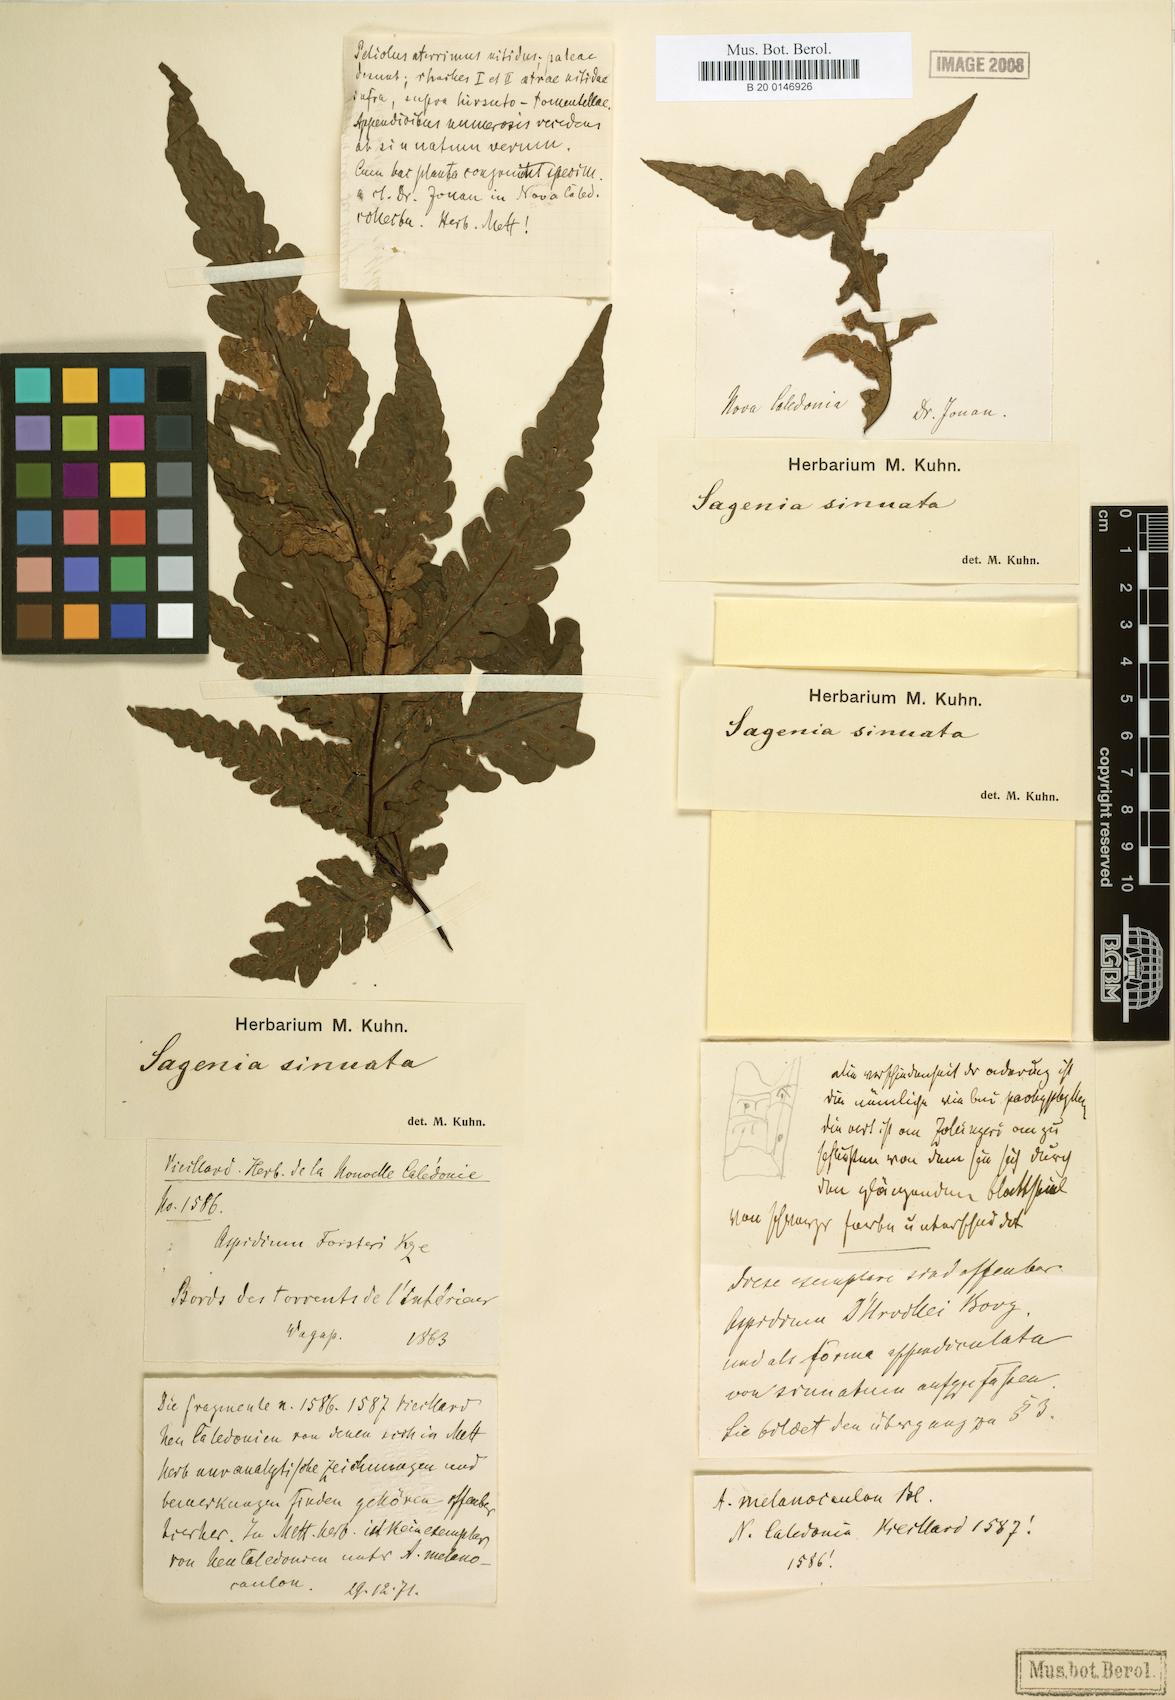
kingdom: Plantae
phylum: Tracheophyta
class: Polypodiopsida
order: Polypodiales
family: Tectariaceae
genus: Tectaria
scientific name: Tectaria sinuata
